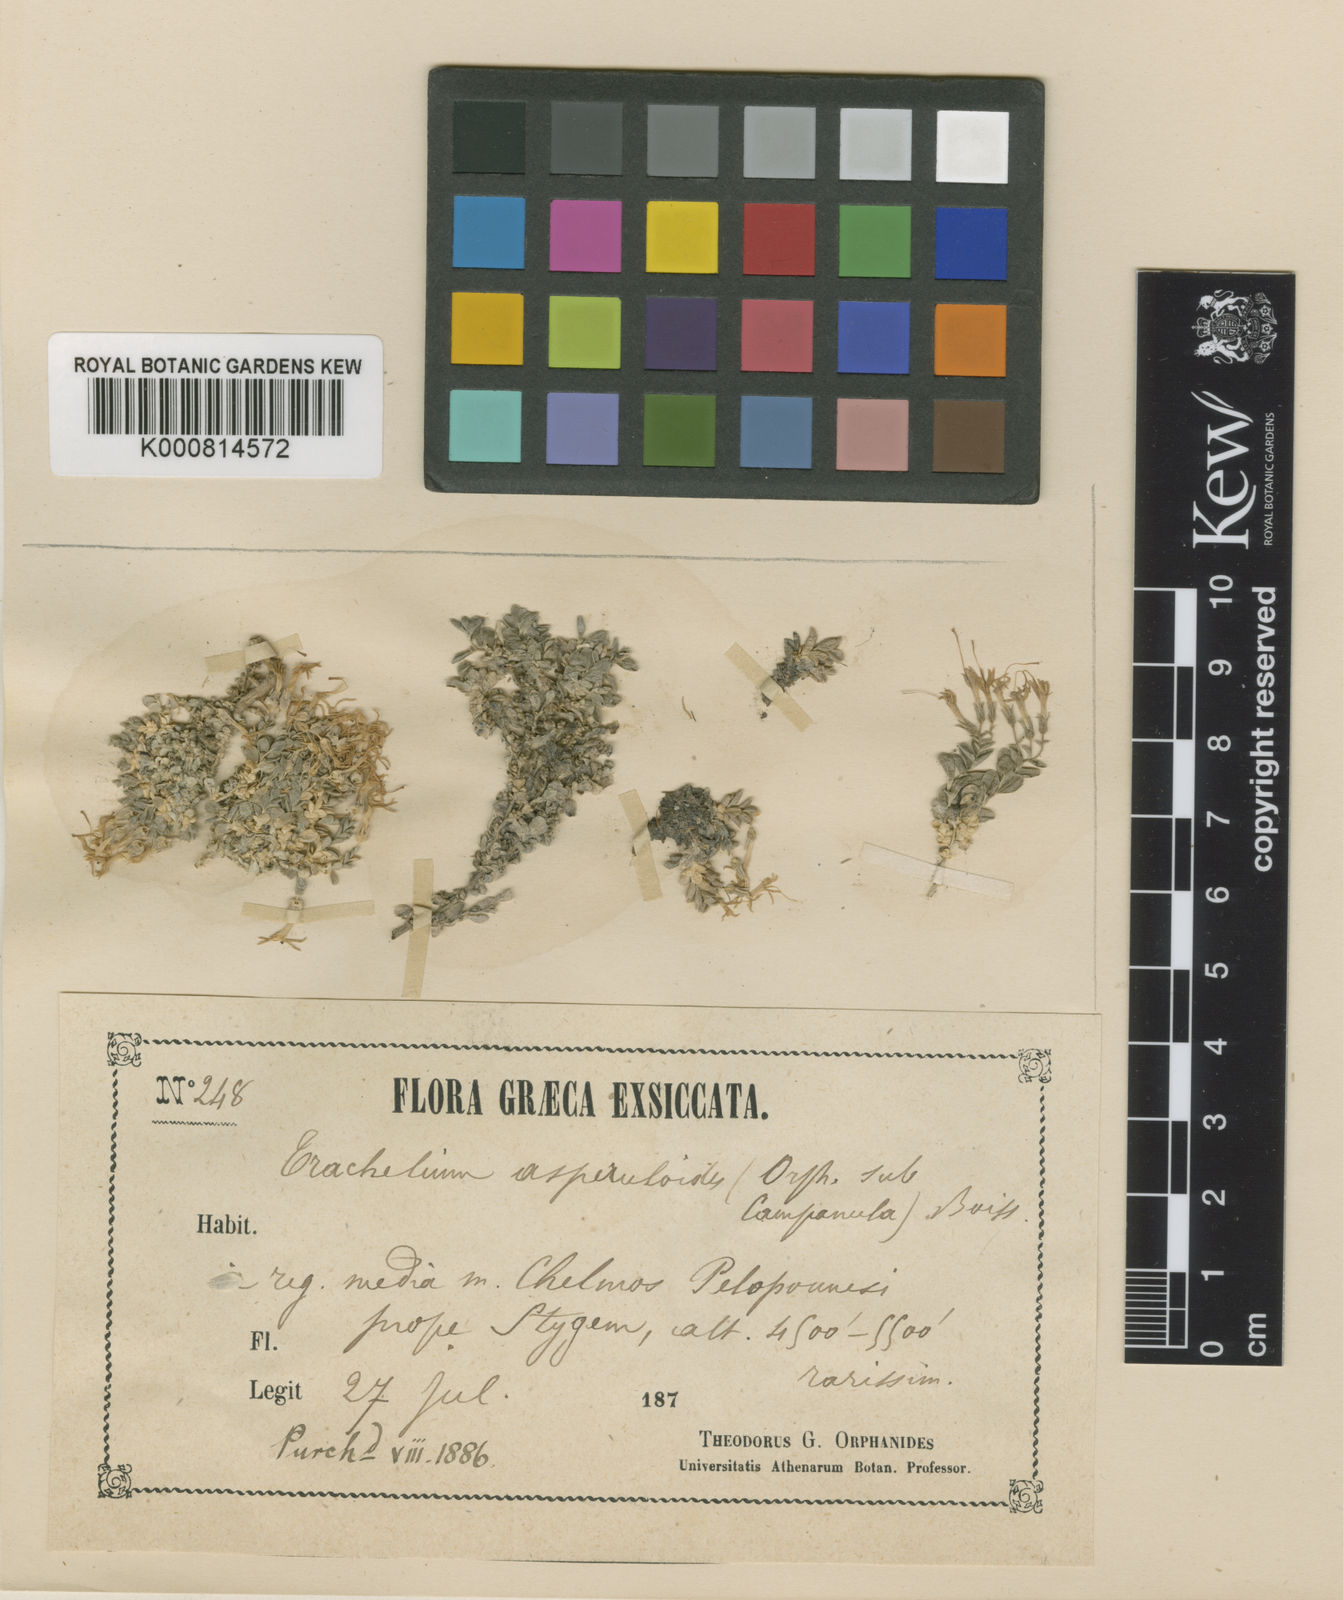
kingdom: Plantae
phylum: Tracheophyta
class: Magnoliopsida
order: Asterales
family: Campanulaceae
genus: Diosphaera
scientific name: Diosphaera
